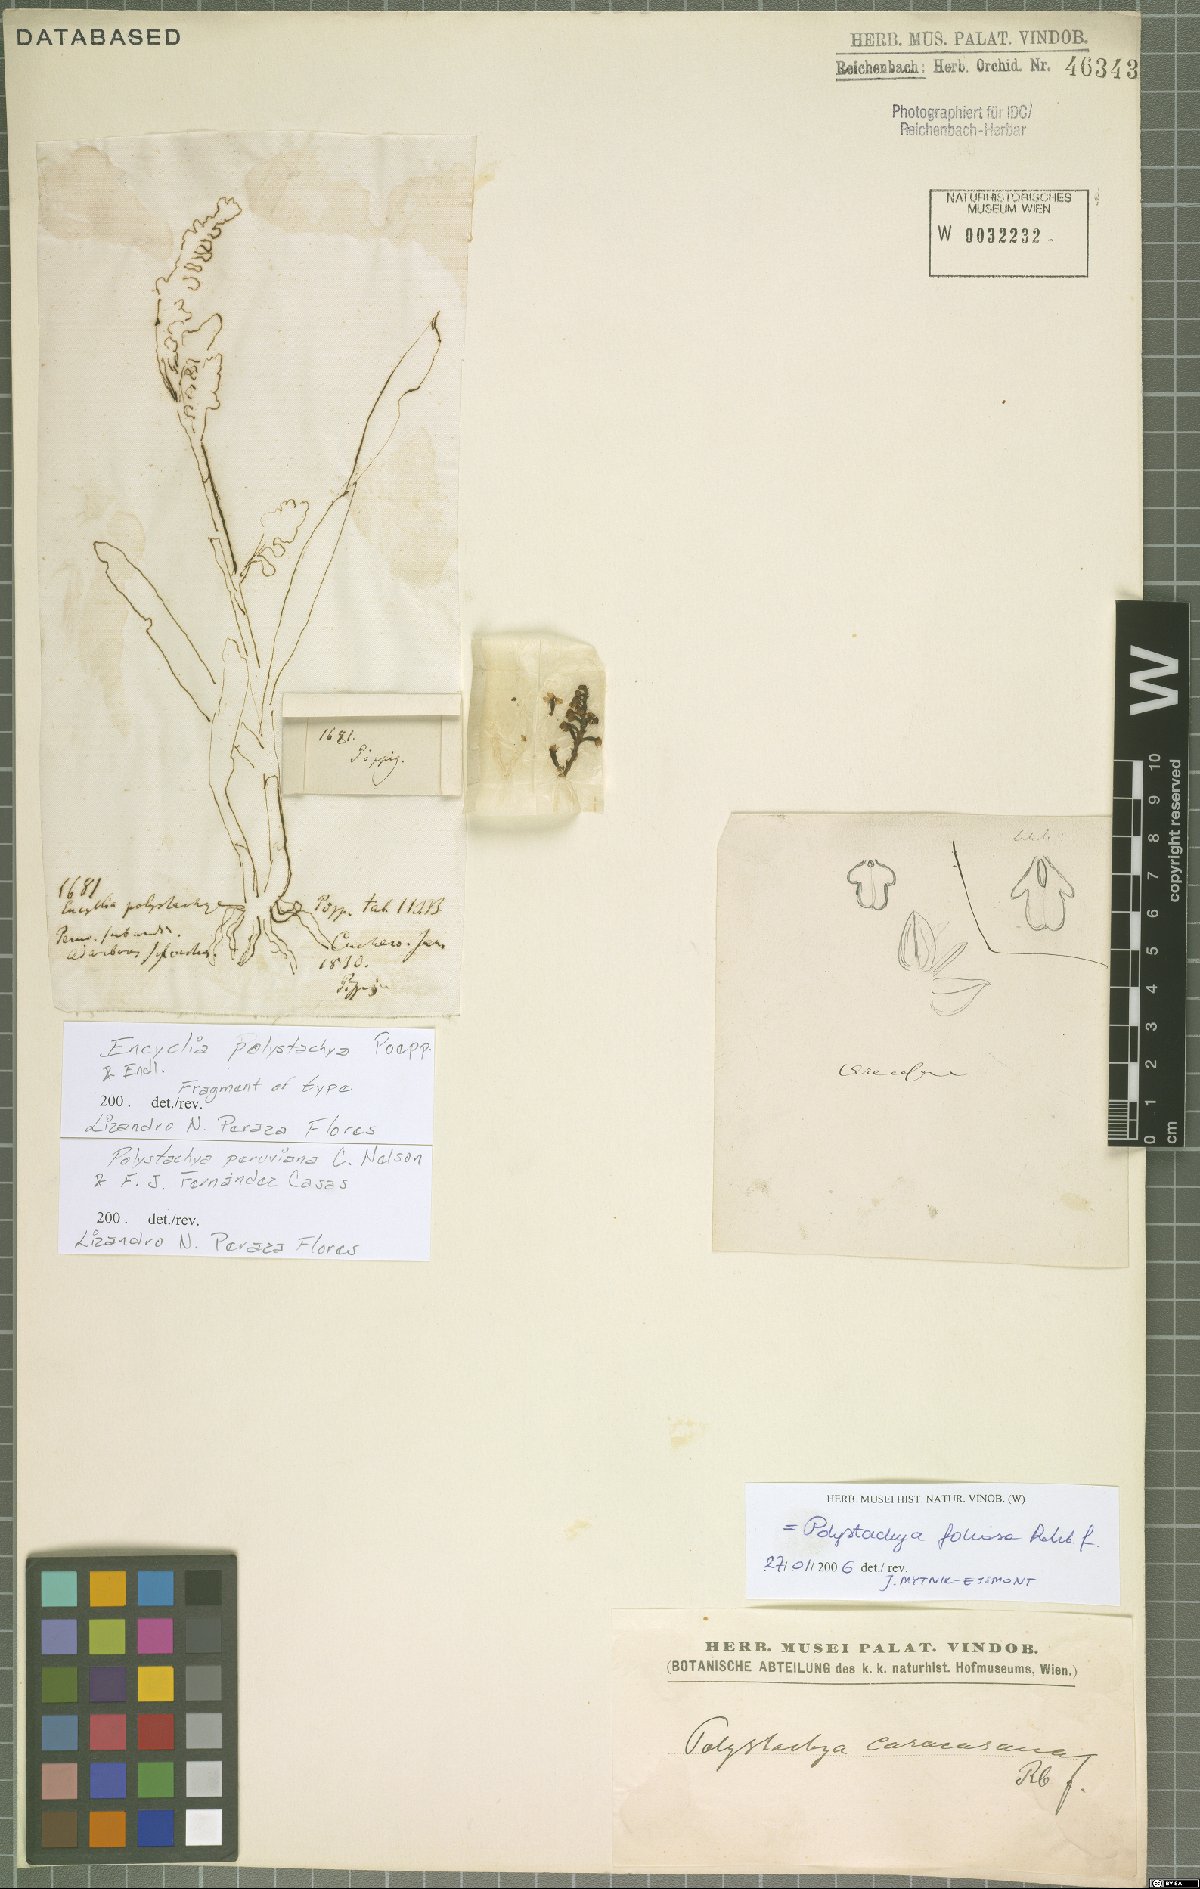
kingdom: Plantae
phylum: Tracheophyta
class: Liliopsida
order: Asparagales
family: Orchidaceae
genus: Polystachya
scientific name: Polystachya paulensis
